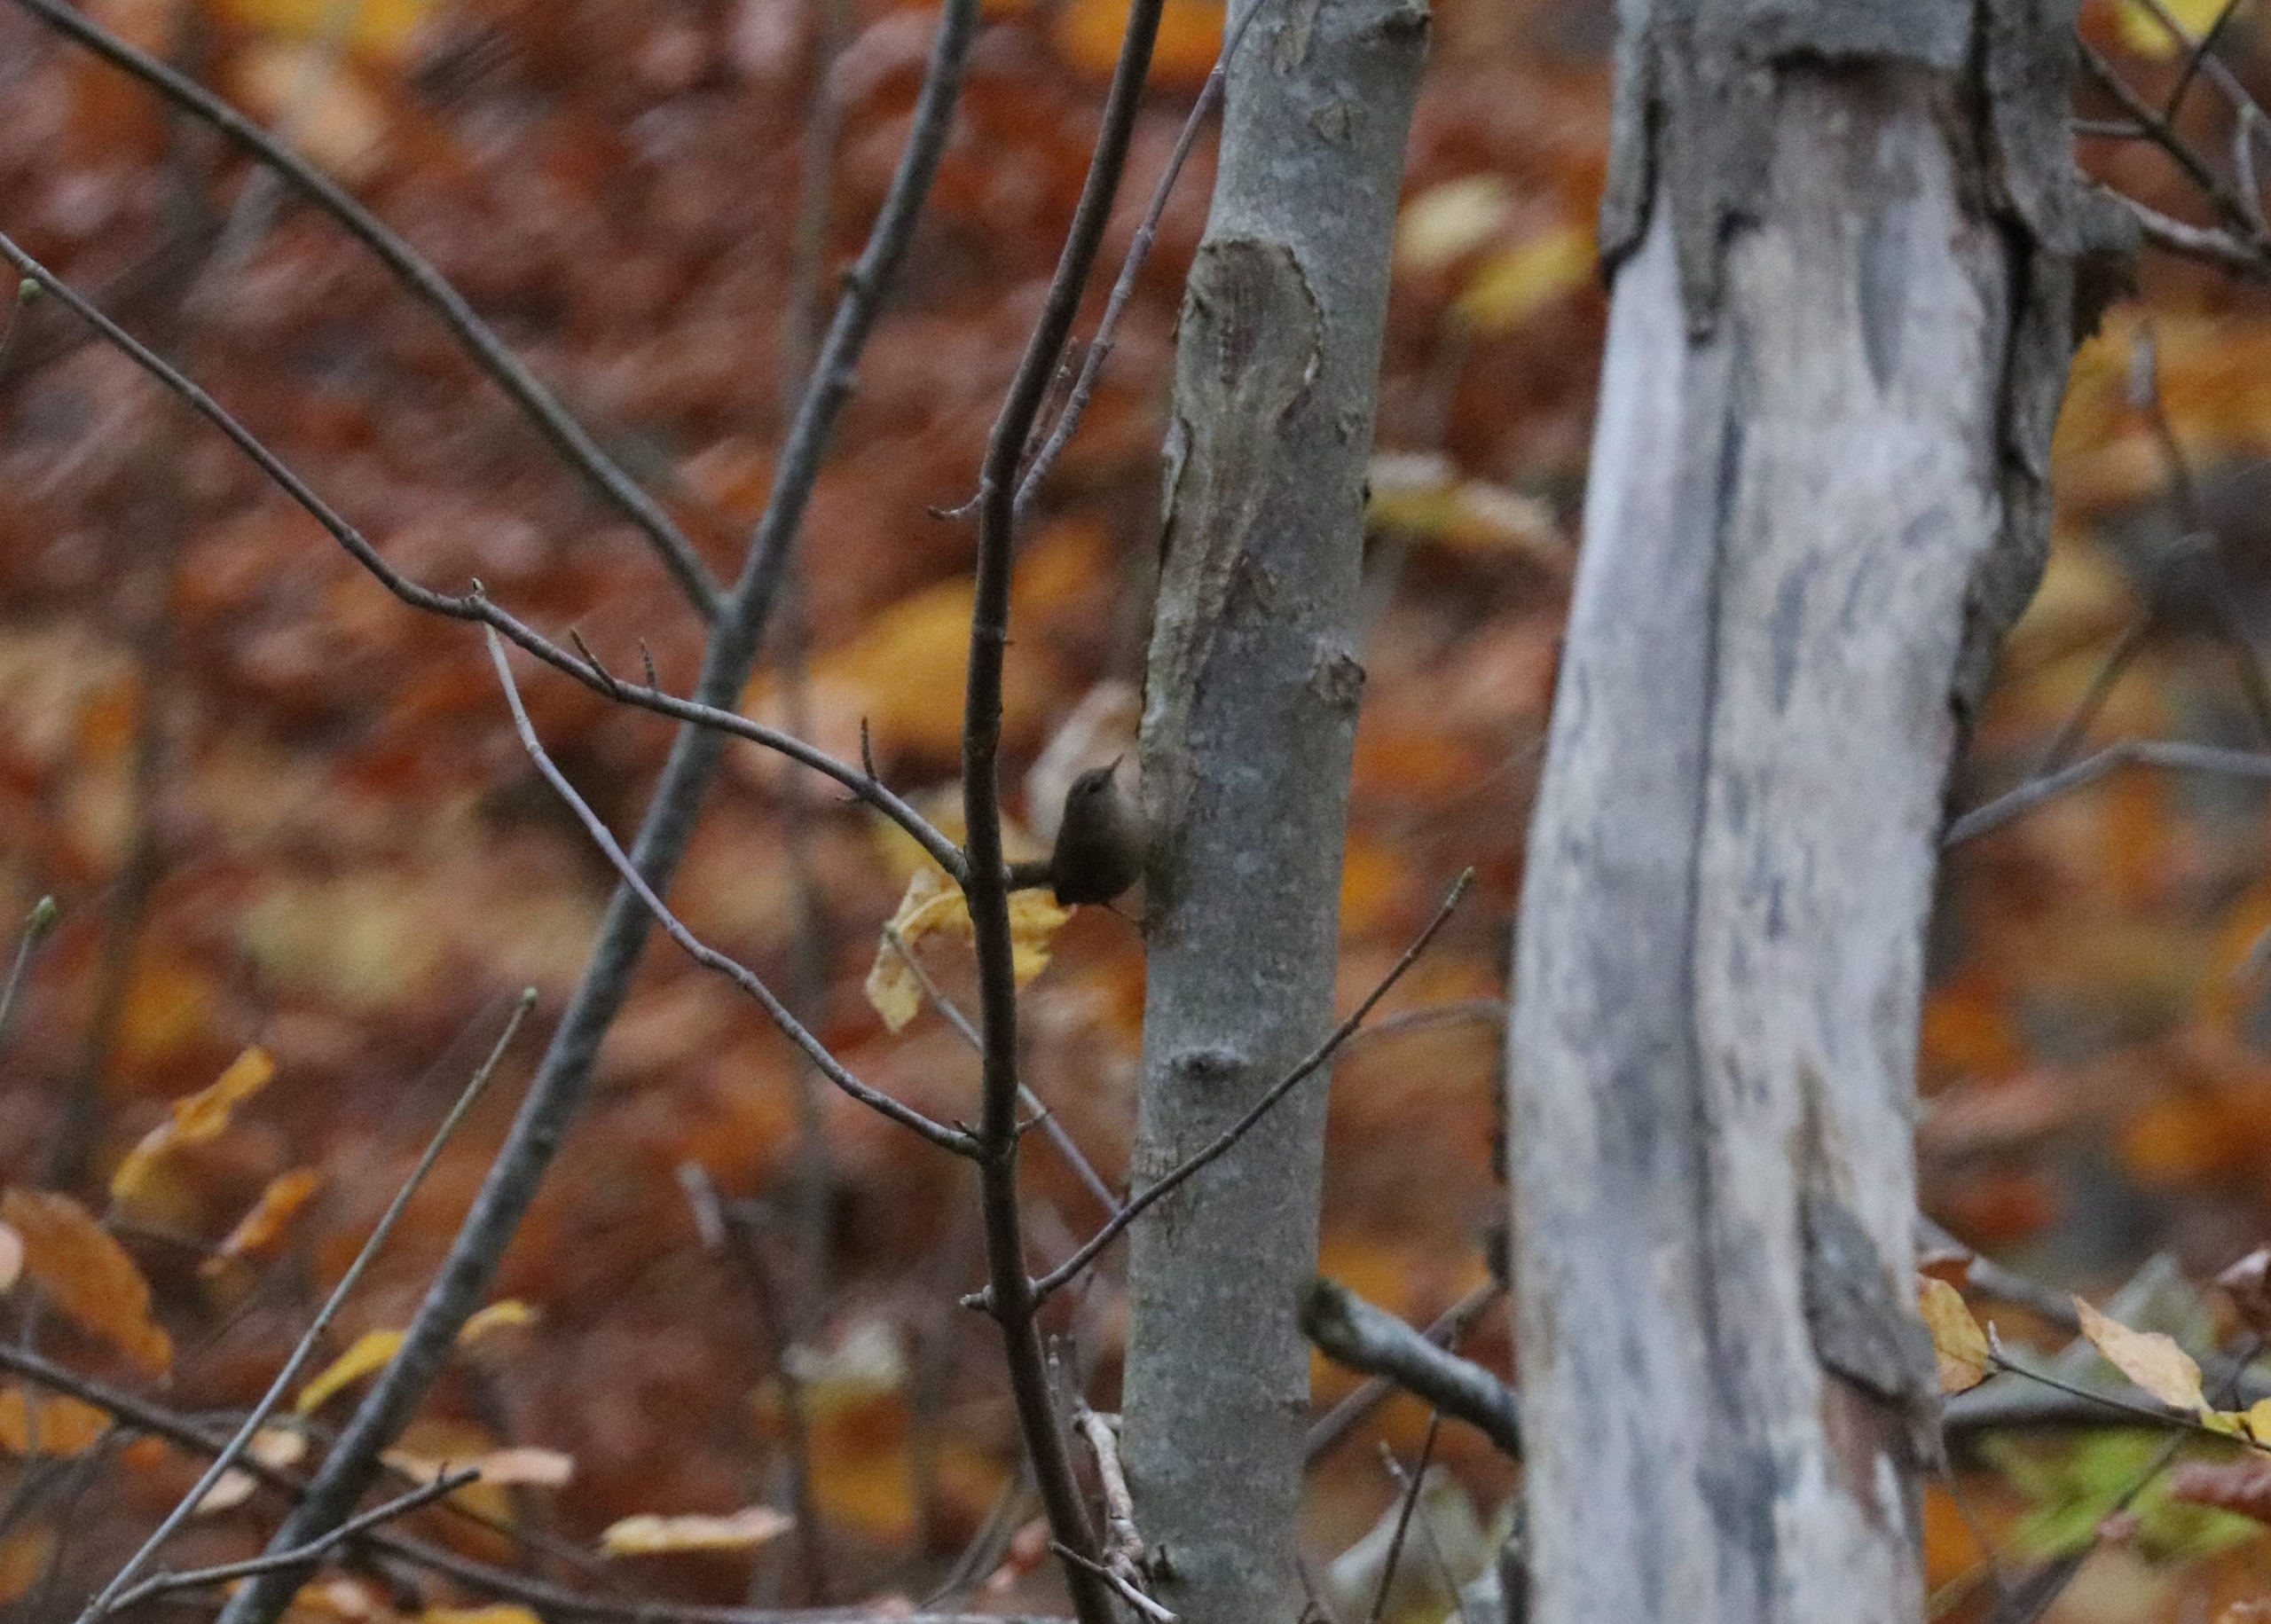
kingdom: Animalia
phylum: Chordata
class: Aves
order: Passeriformes
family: Troglodytidae
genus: Troglodytes
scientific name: Troglodytes troglodytes
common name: Gærdesmutte
